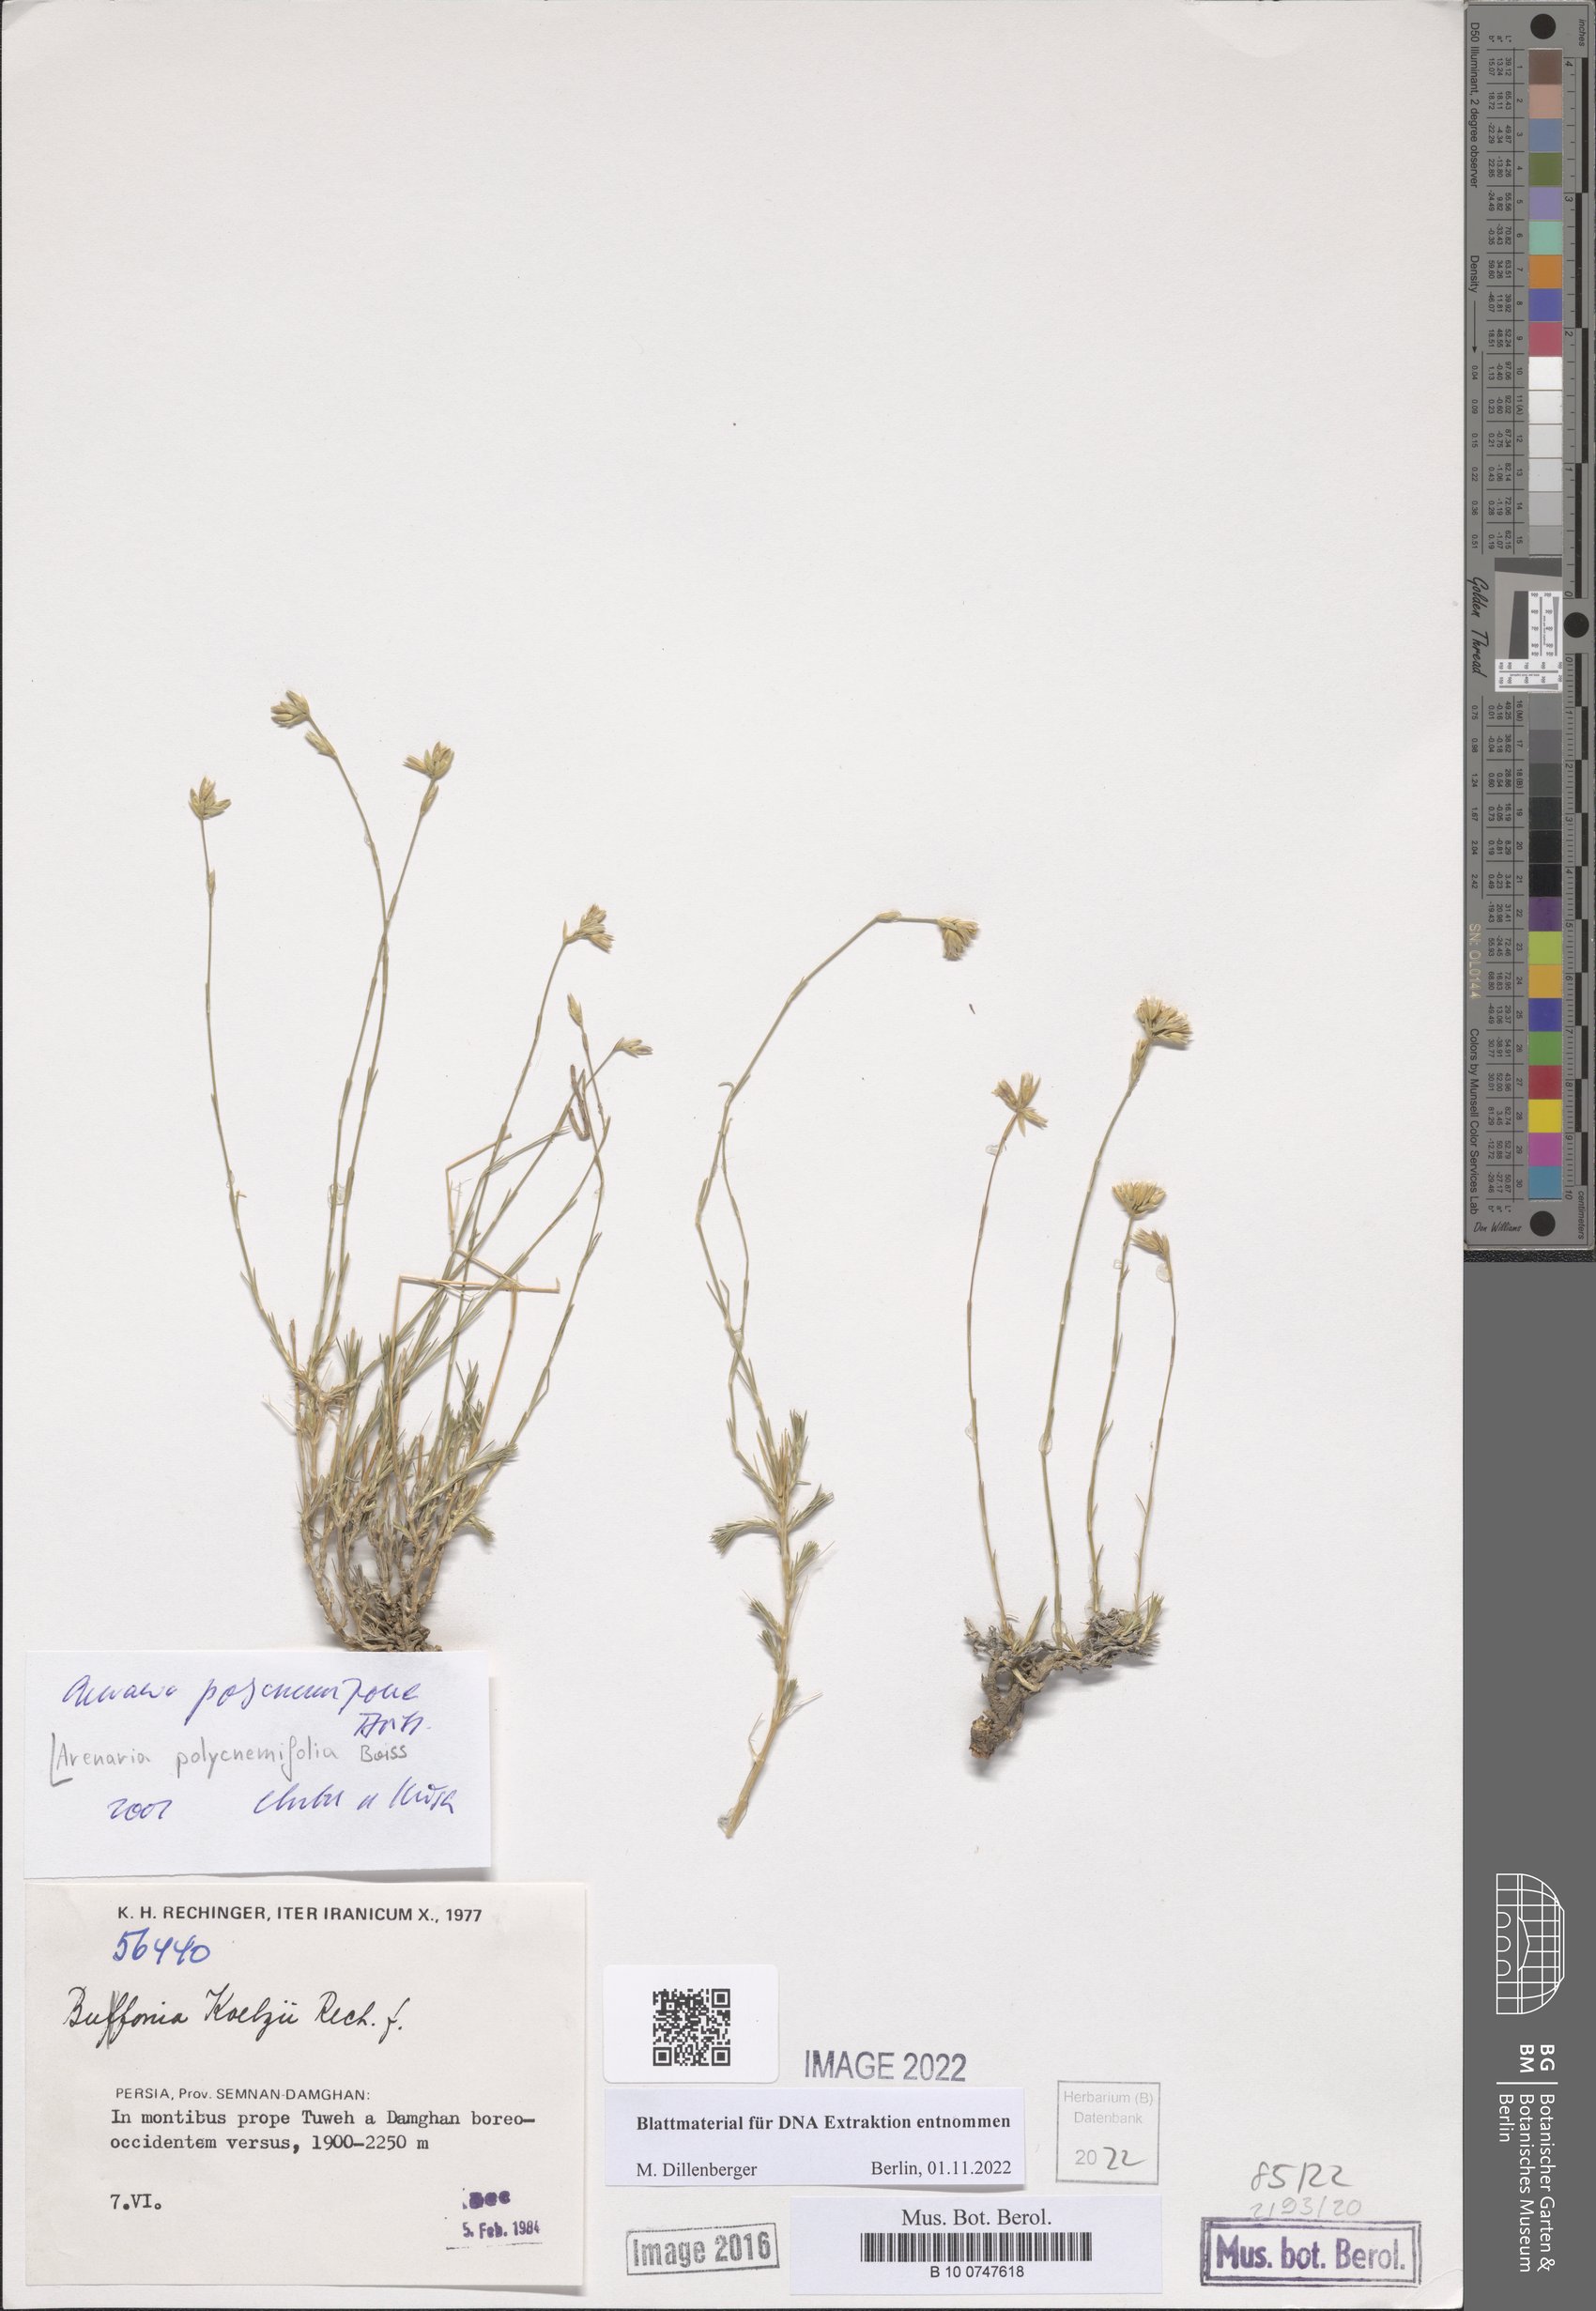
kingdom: Plantae
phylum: Tracheophyta
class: Magnoliopsida
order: Caryophyllales
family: Caryophyllaceae
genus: Eremogone
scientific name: Eremogone polycnemifolia
